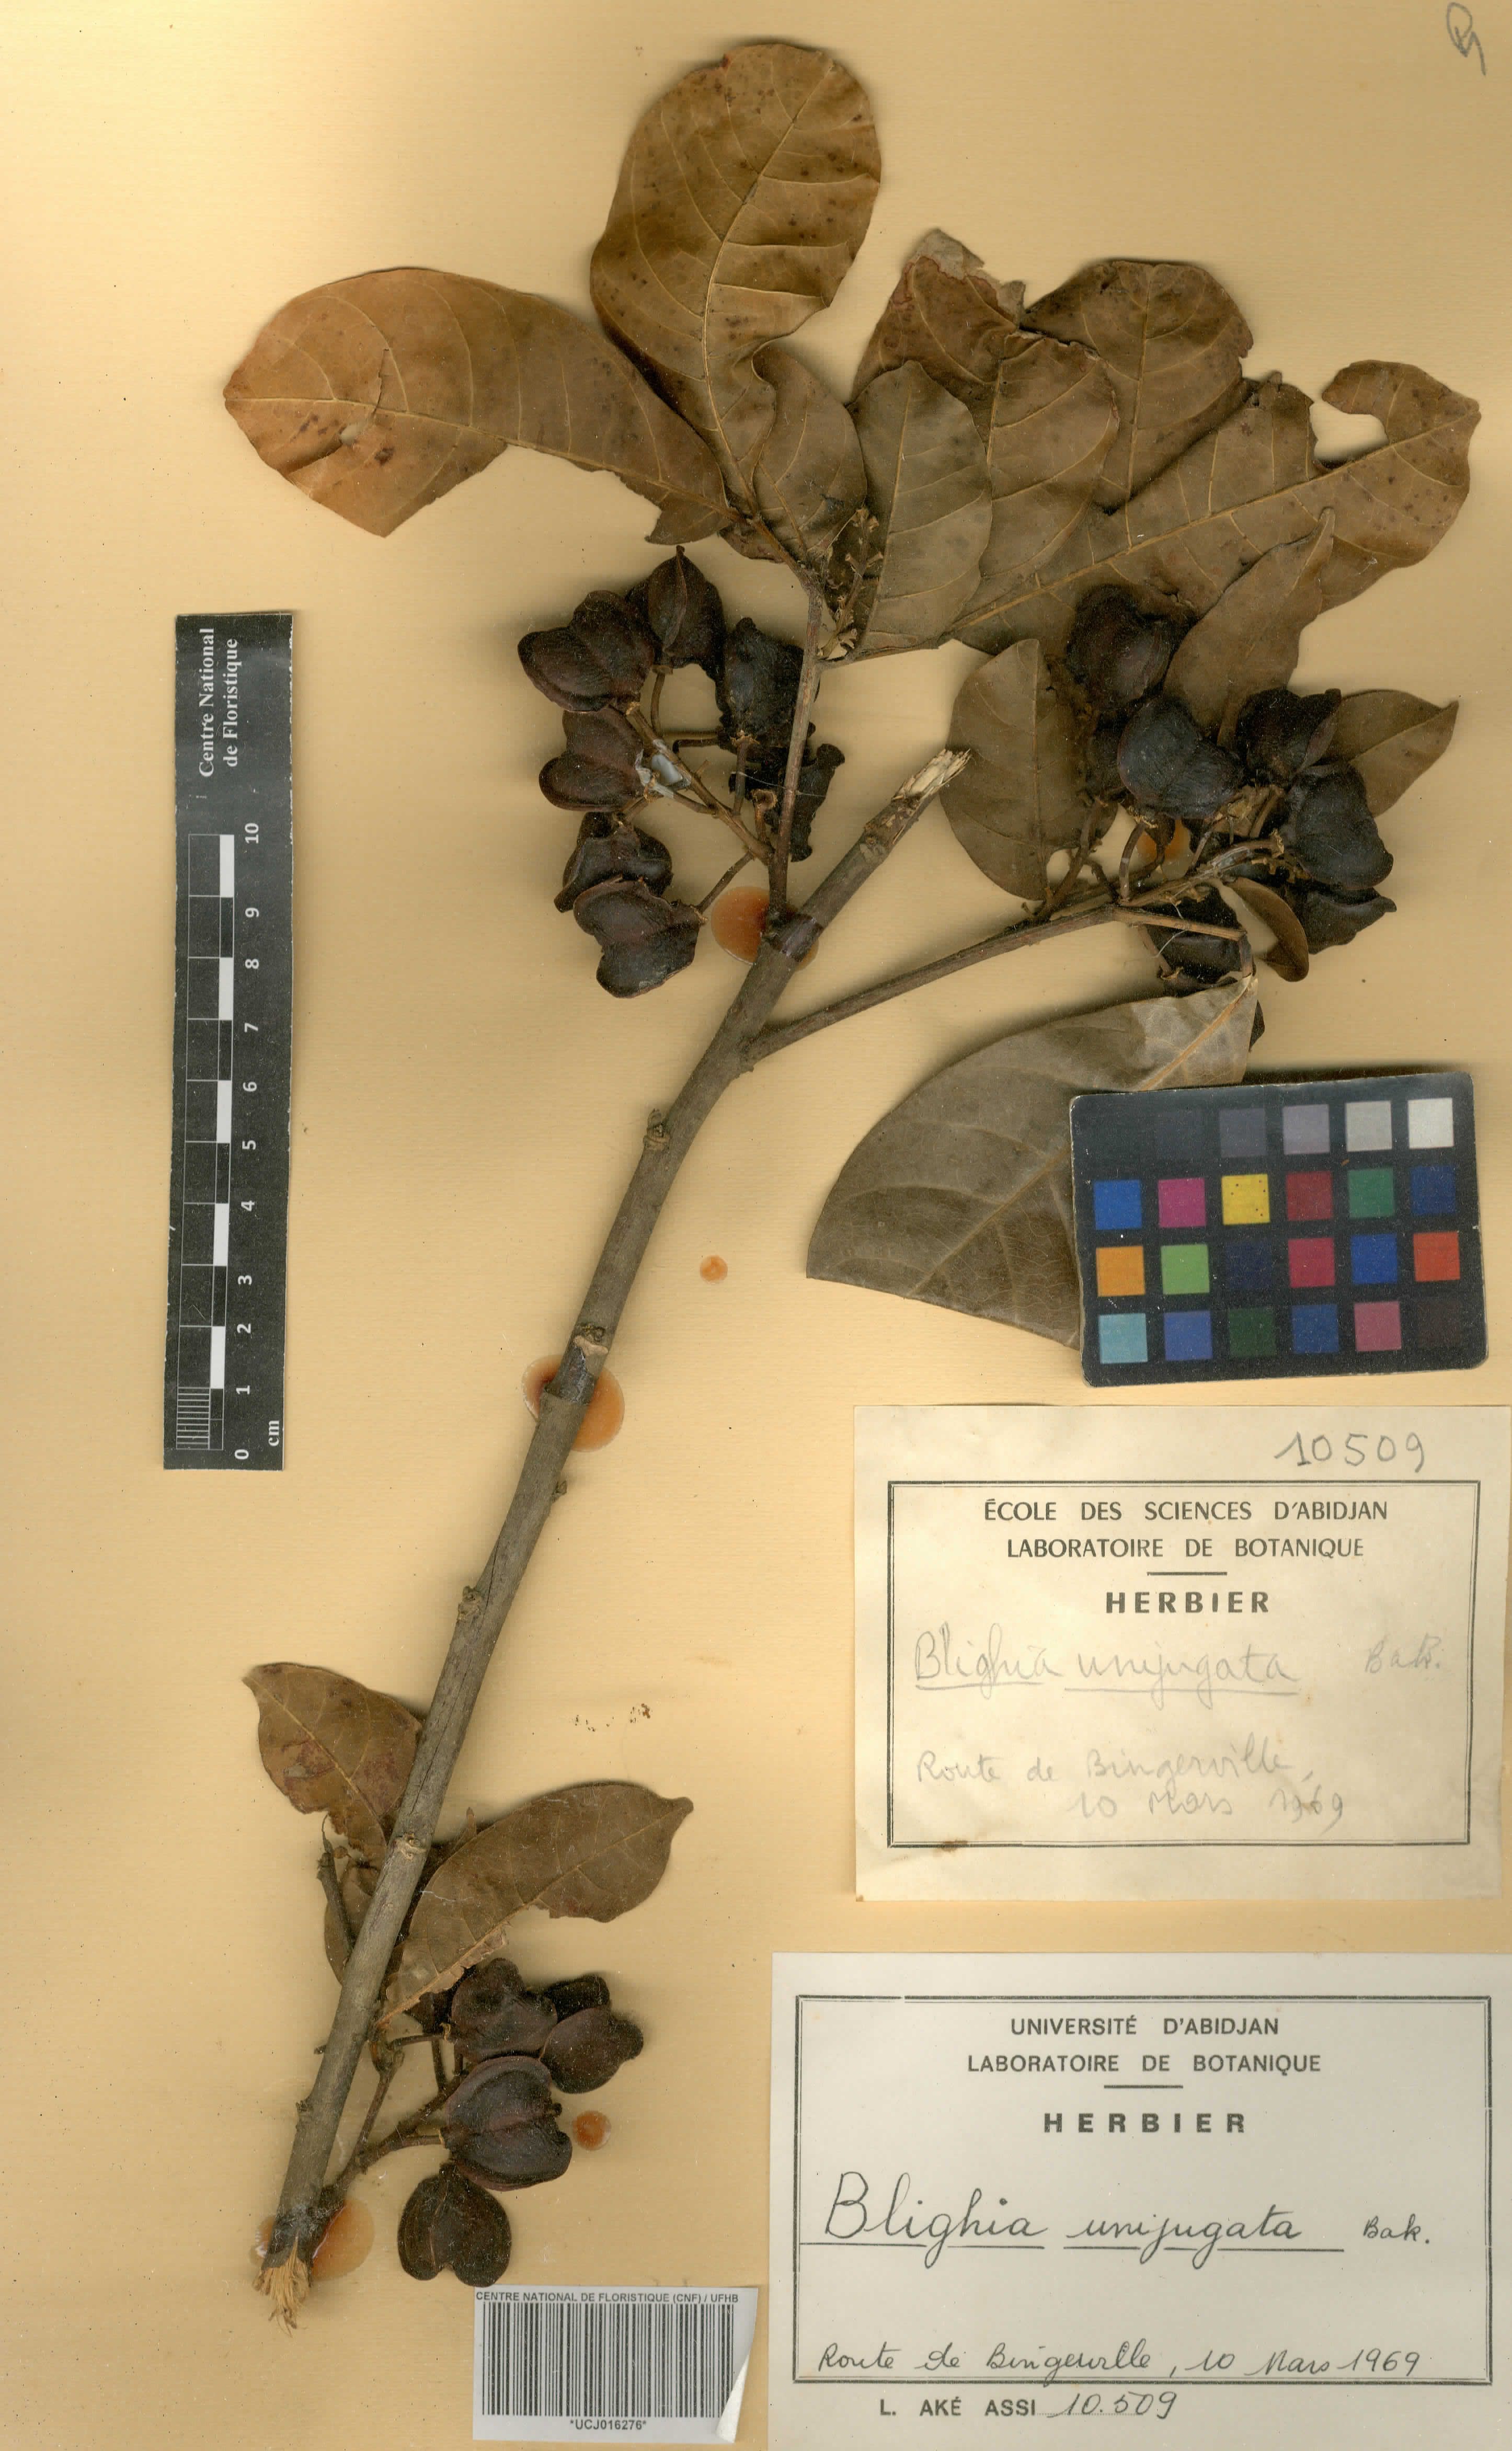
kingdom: Plantae
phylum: Tracheophyta
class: Magnoliopsida
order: Sapindales
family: Sapindaceae
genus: Blighia
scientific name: Blighia unijugata
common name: Triangle tops
